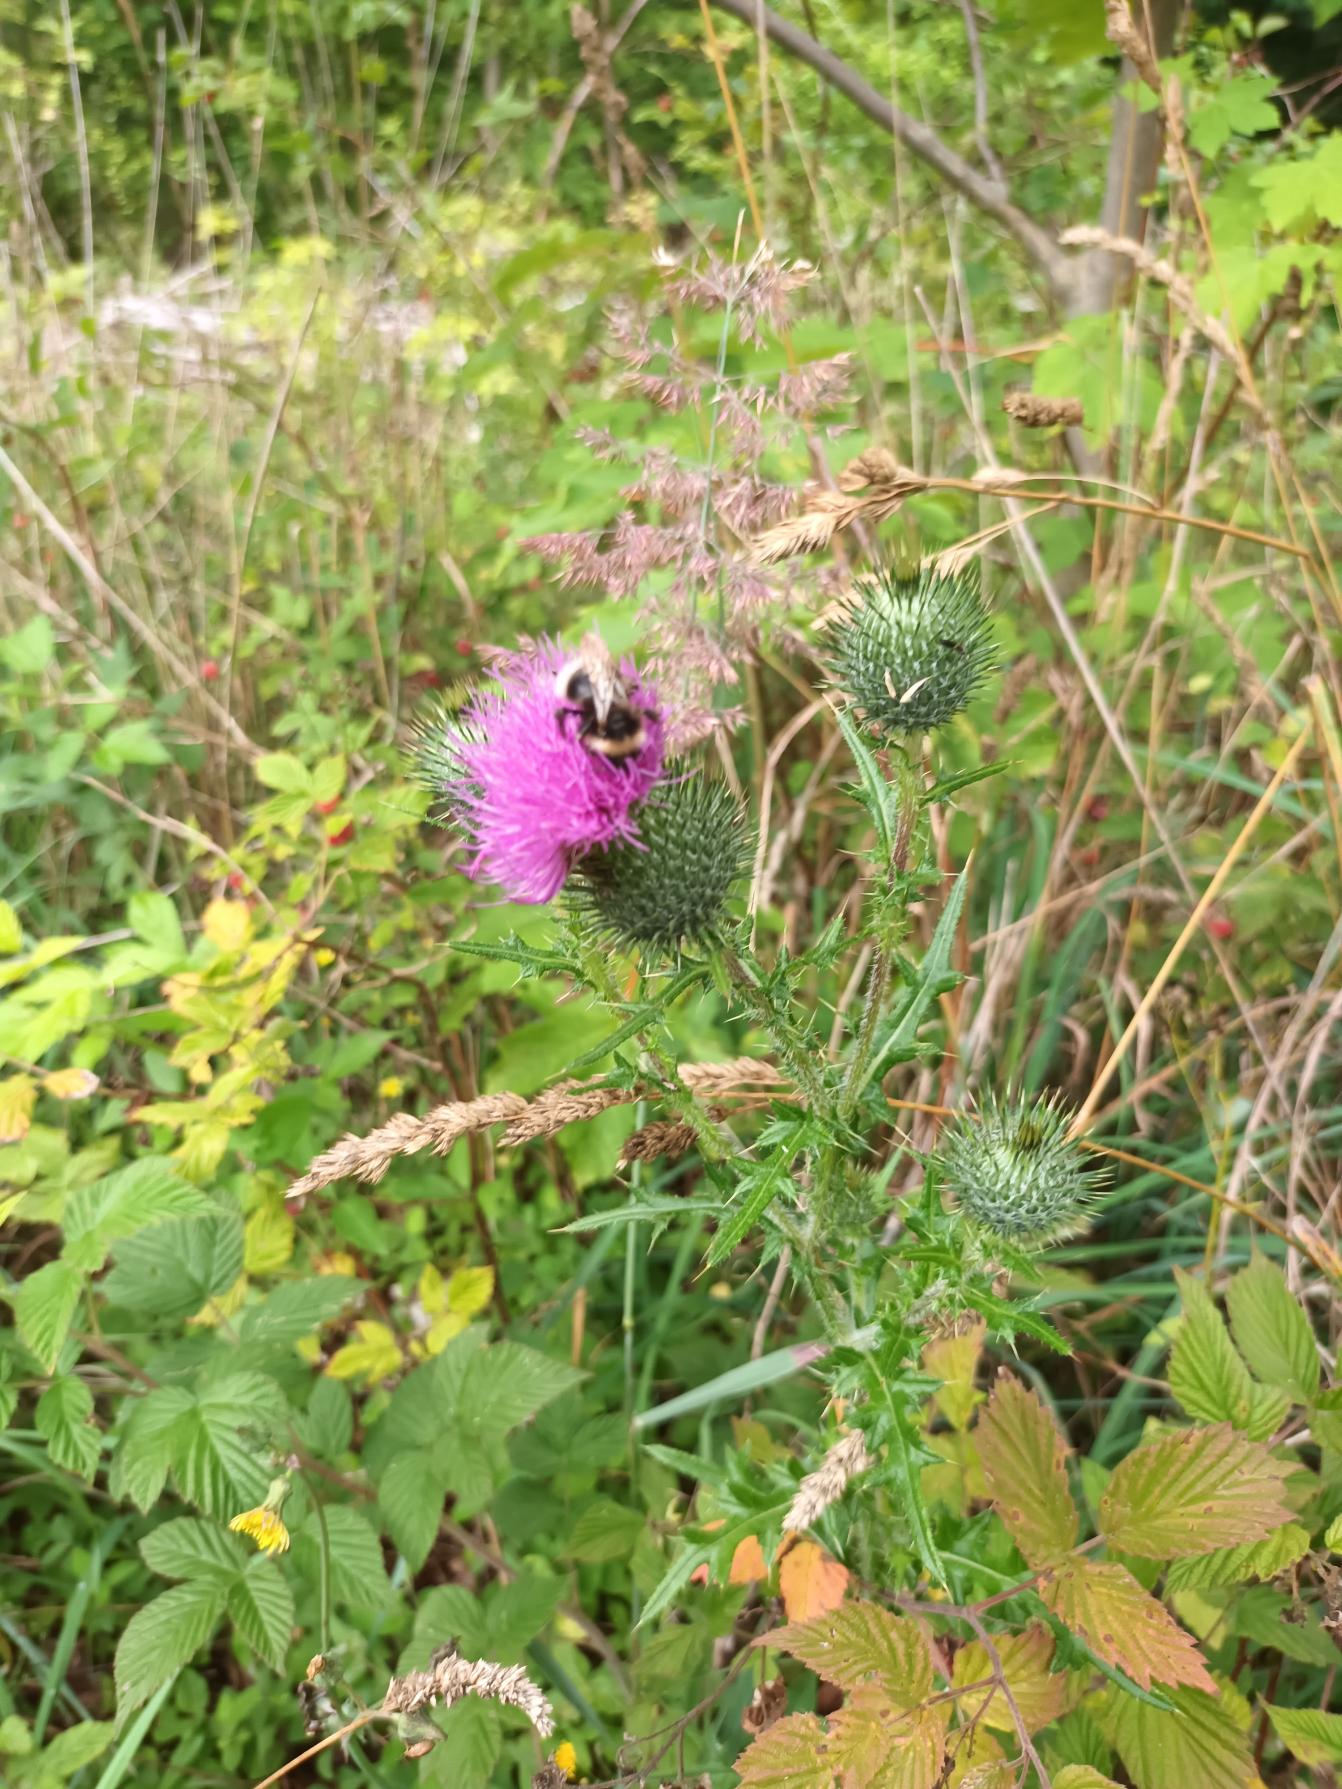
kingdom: Plantae
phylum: Tracheophyta
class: Magnoliopsida
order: Asterales
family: Asteraceae
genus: Cirsium
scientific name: Cirsium vulgare
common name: Horse-tidsel
